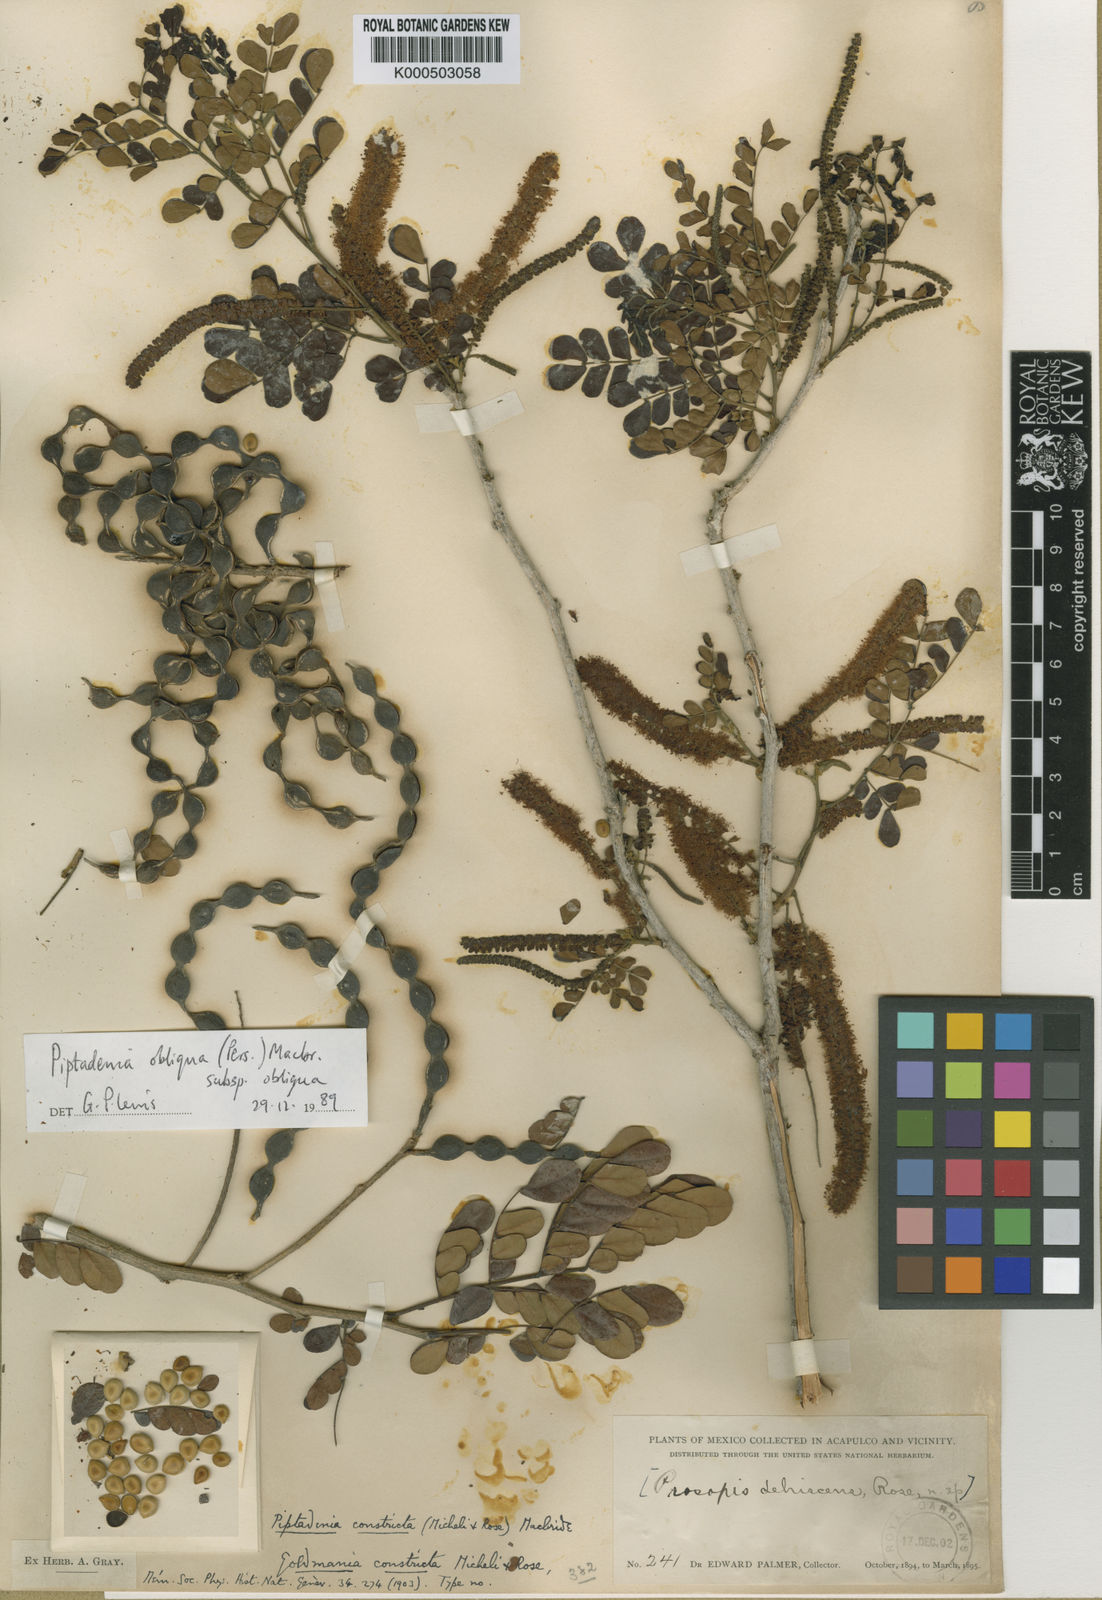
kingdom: Plantae
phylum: Tracheophyta
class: Magnoliopsida
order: Fabales
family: Fabaceae
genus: Pityrocarpa
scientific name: Pityrocarpa obliqua
